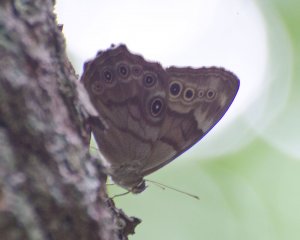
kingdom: Animalia
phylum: Arthropoda
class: Insecta
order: Lepidoptera
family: Nymphalidae
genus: Lethe
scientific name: Lethe anthedon
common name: Northern Pearly-Eye
